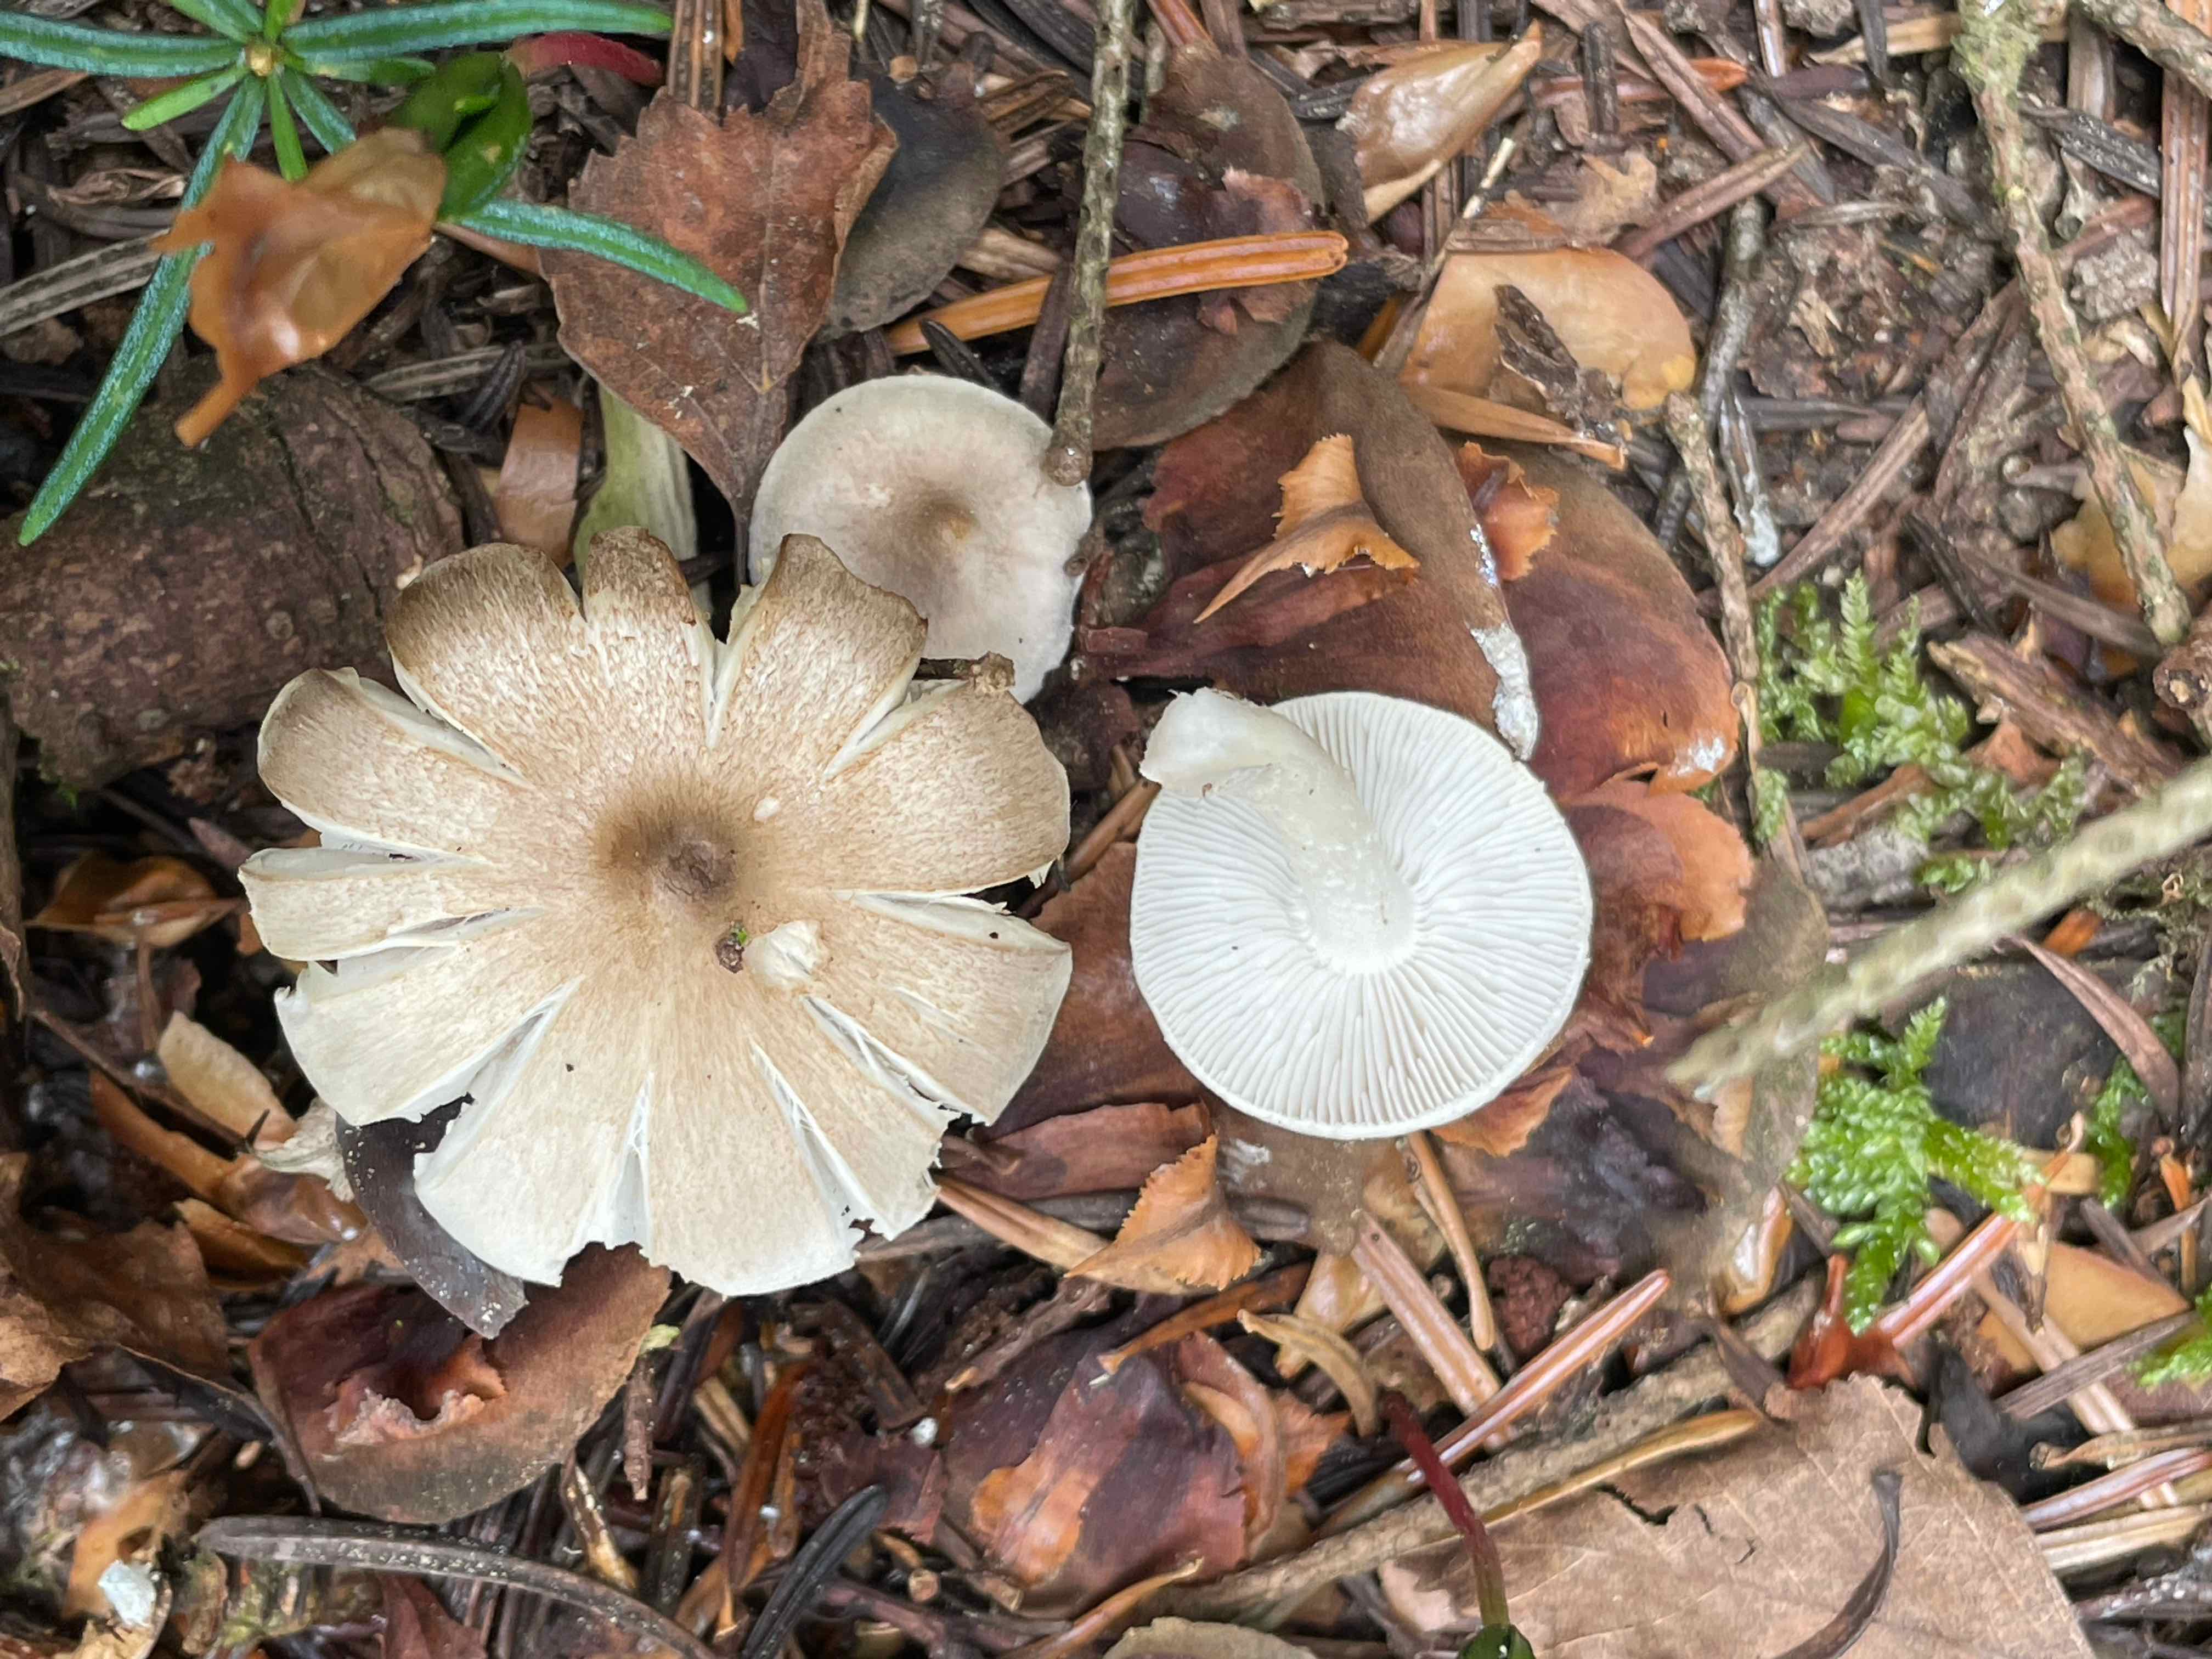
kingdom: Fungi
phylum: Basidiomycota
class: Agaricomycetes
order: Agaricales
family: Tricholomataceae
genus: Tricholoma
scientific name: Tricholoma
